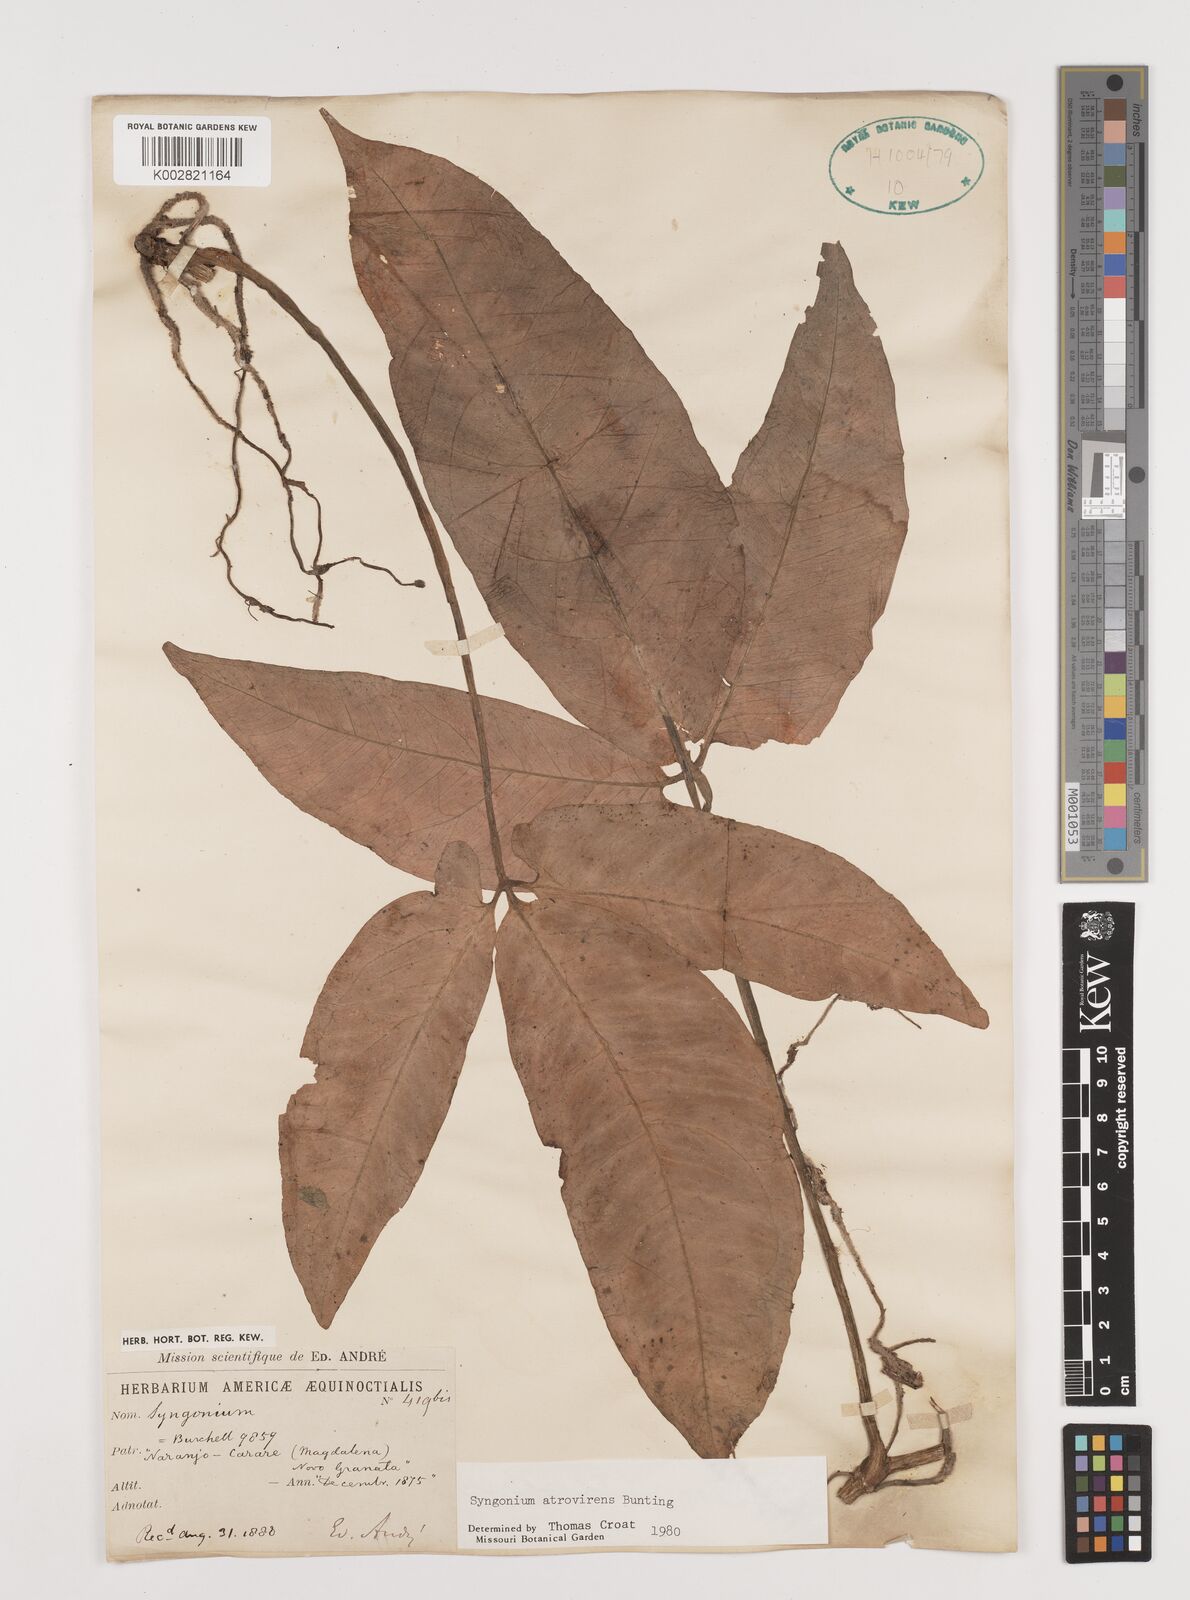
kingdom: Plantae
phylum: Tracheophyta
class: Liliopsida
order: Alismatales
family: Araceae
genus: Syngonium
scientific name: Syngonium yurimaguense
